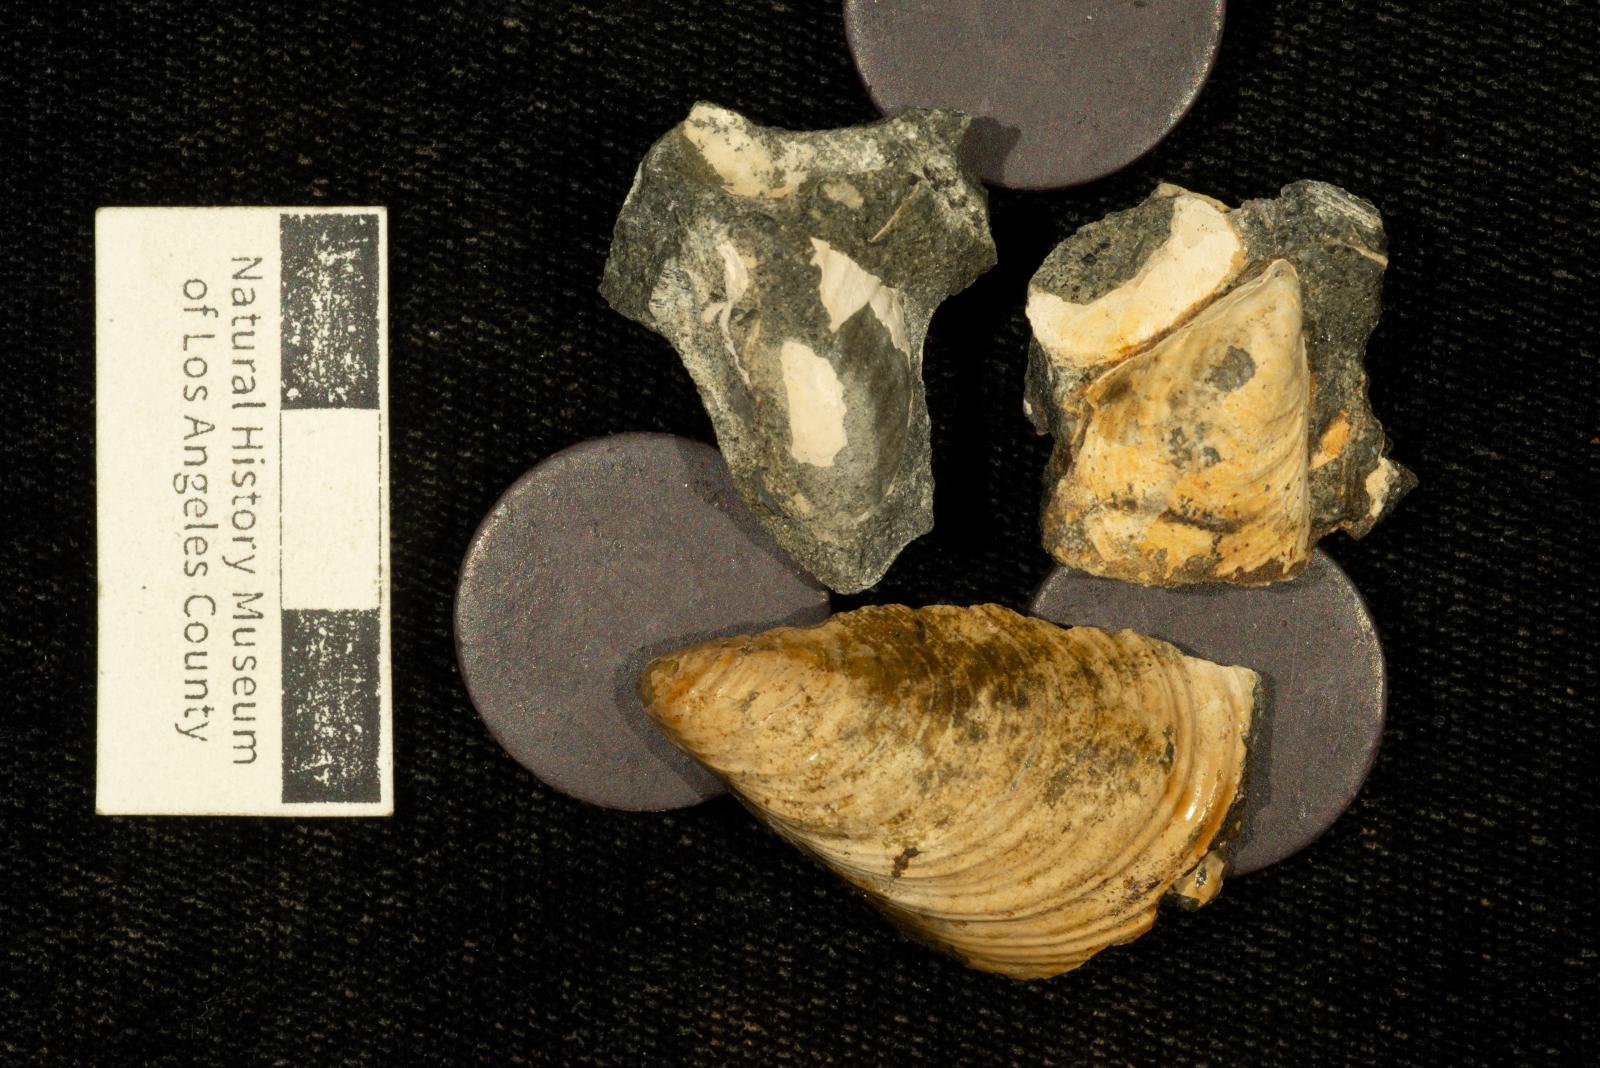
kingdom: Animalia
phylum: Mollusca
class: Bivalvia
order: Myalinida
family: Inoceramidae
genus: Inoceramus
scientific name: Inoceramus
